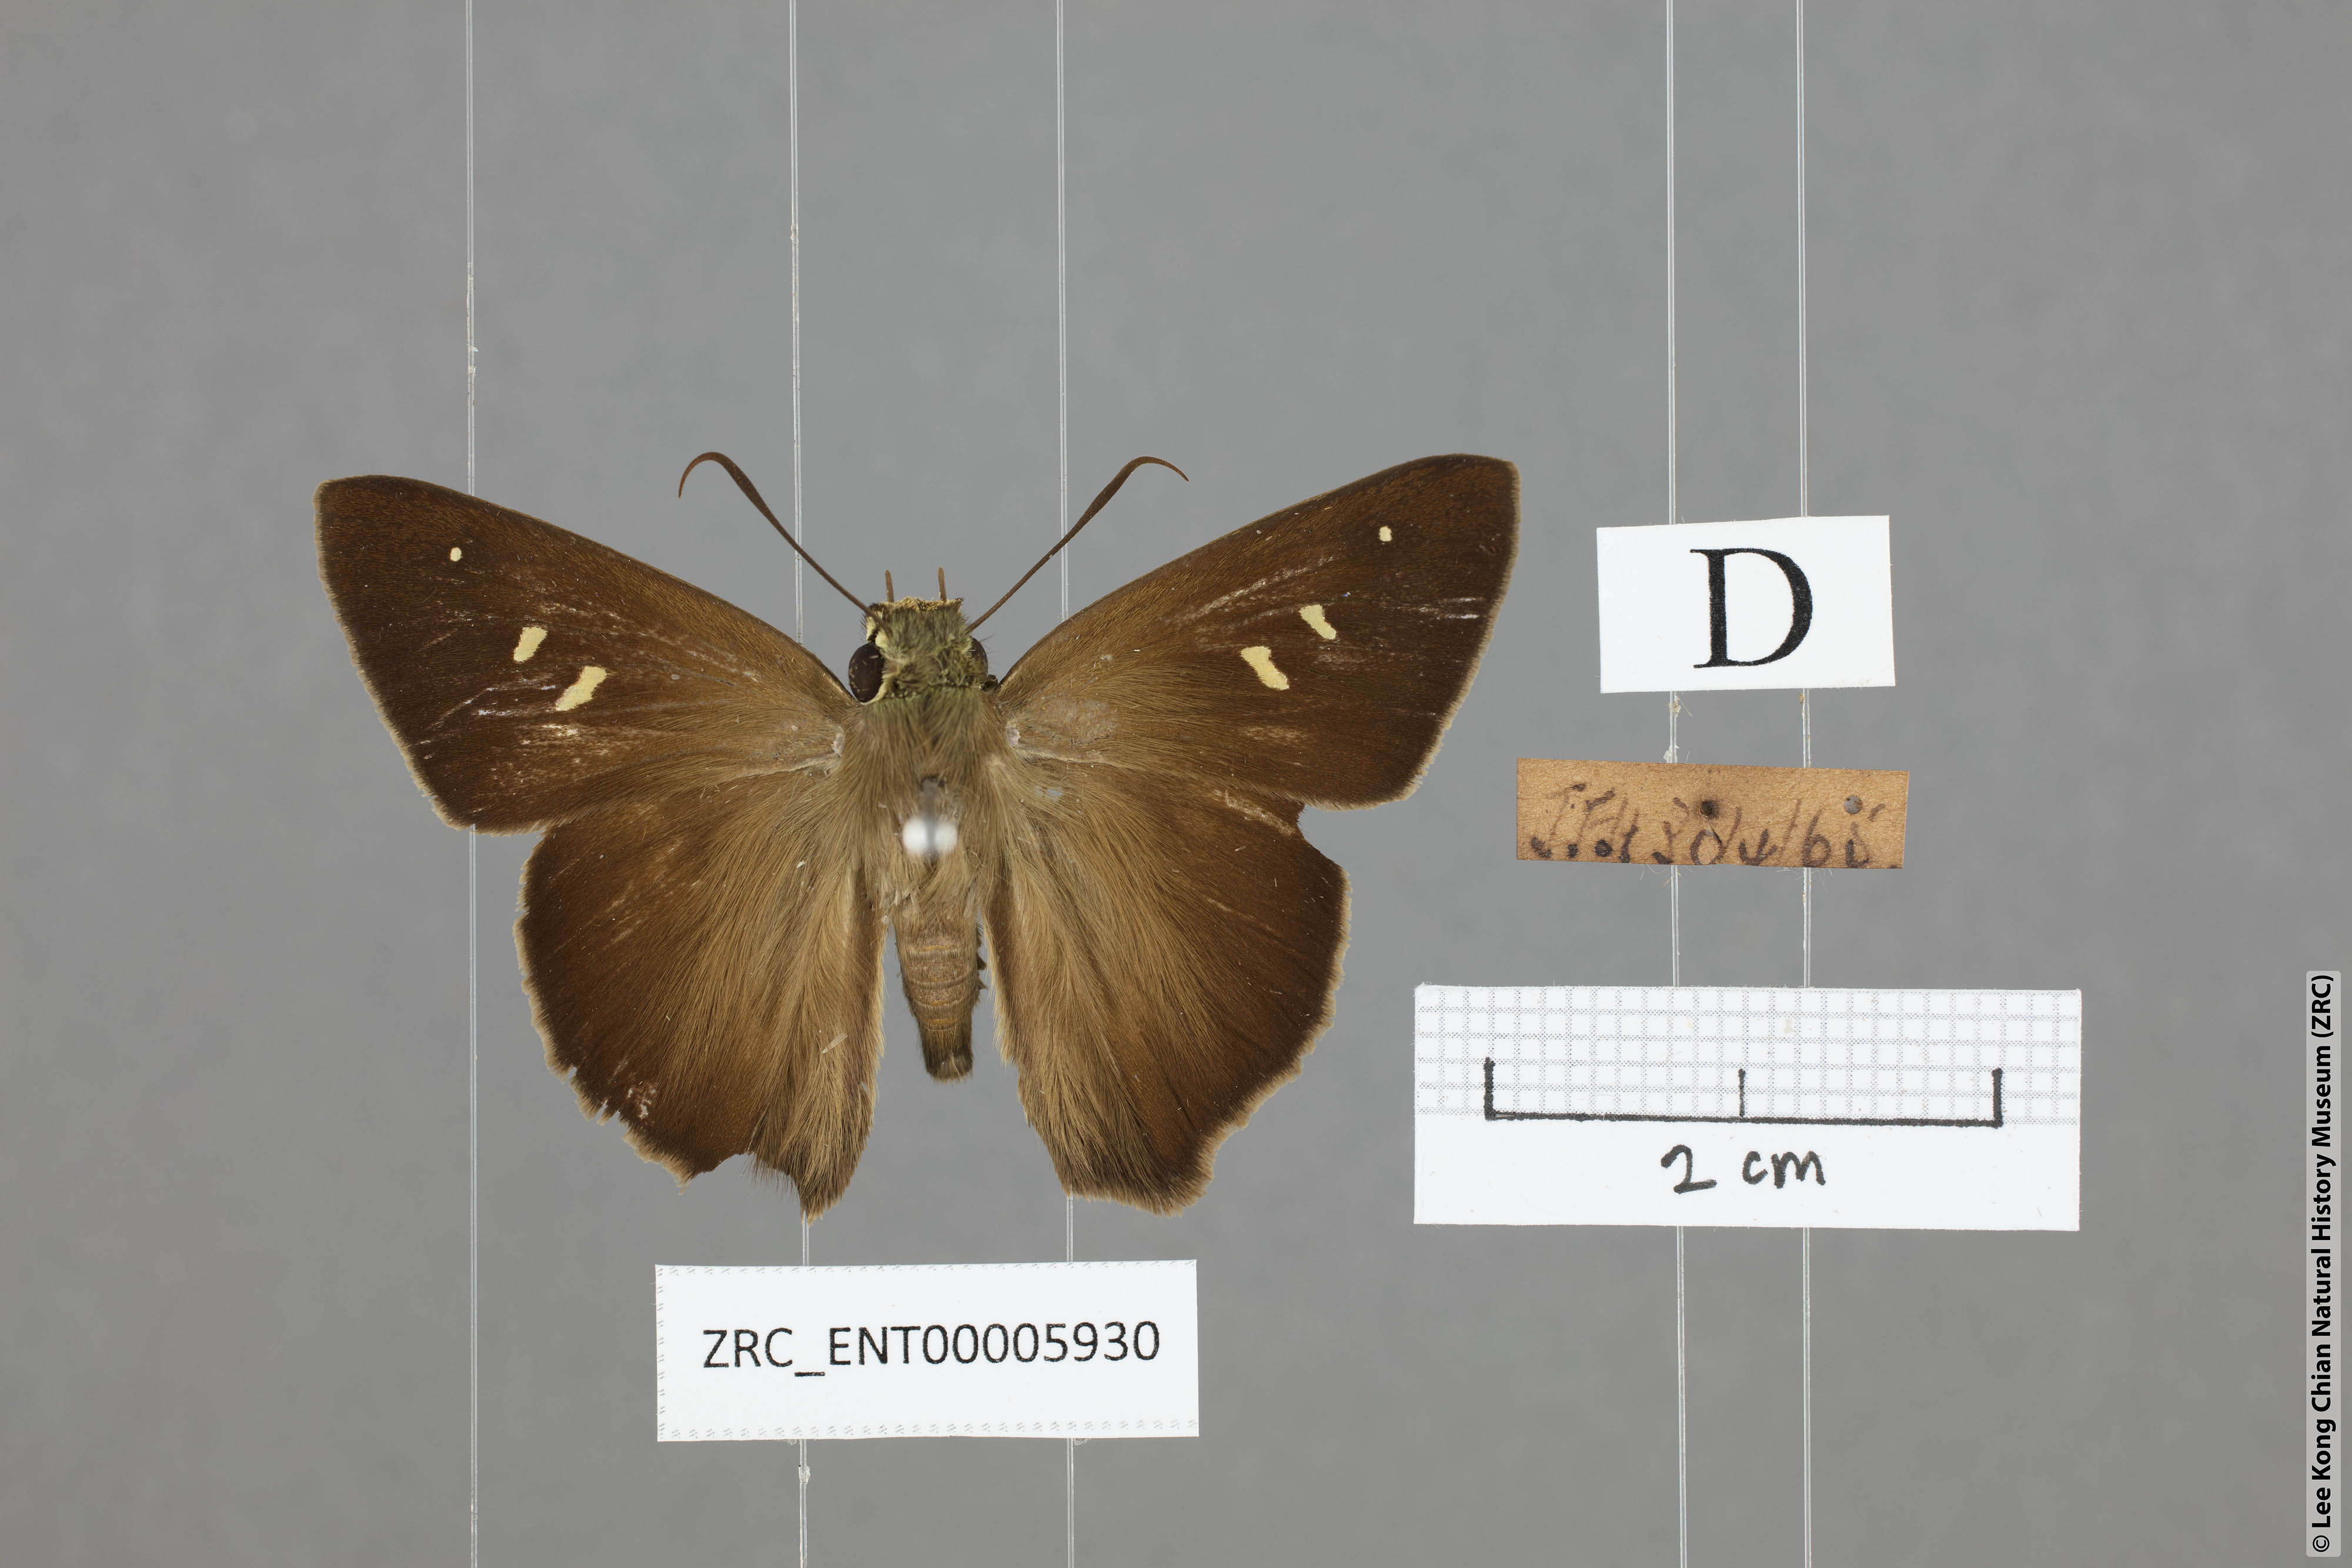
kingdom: Animalia
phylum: Arthropoda
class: Insecta
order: Lepidoptera
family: Hesperiidae
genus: Hasora
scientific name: Hasora vitta
